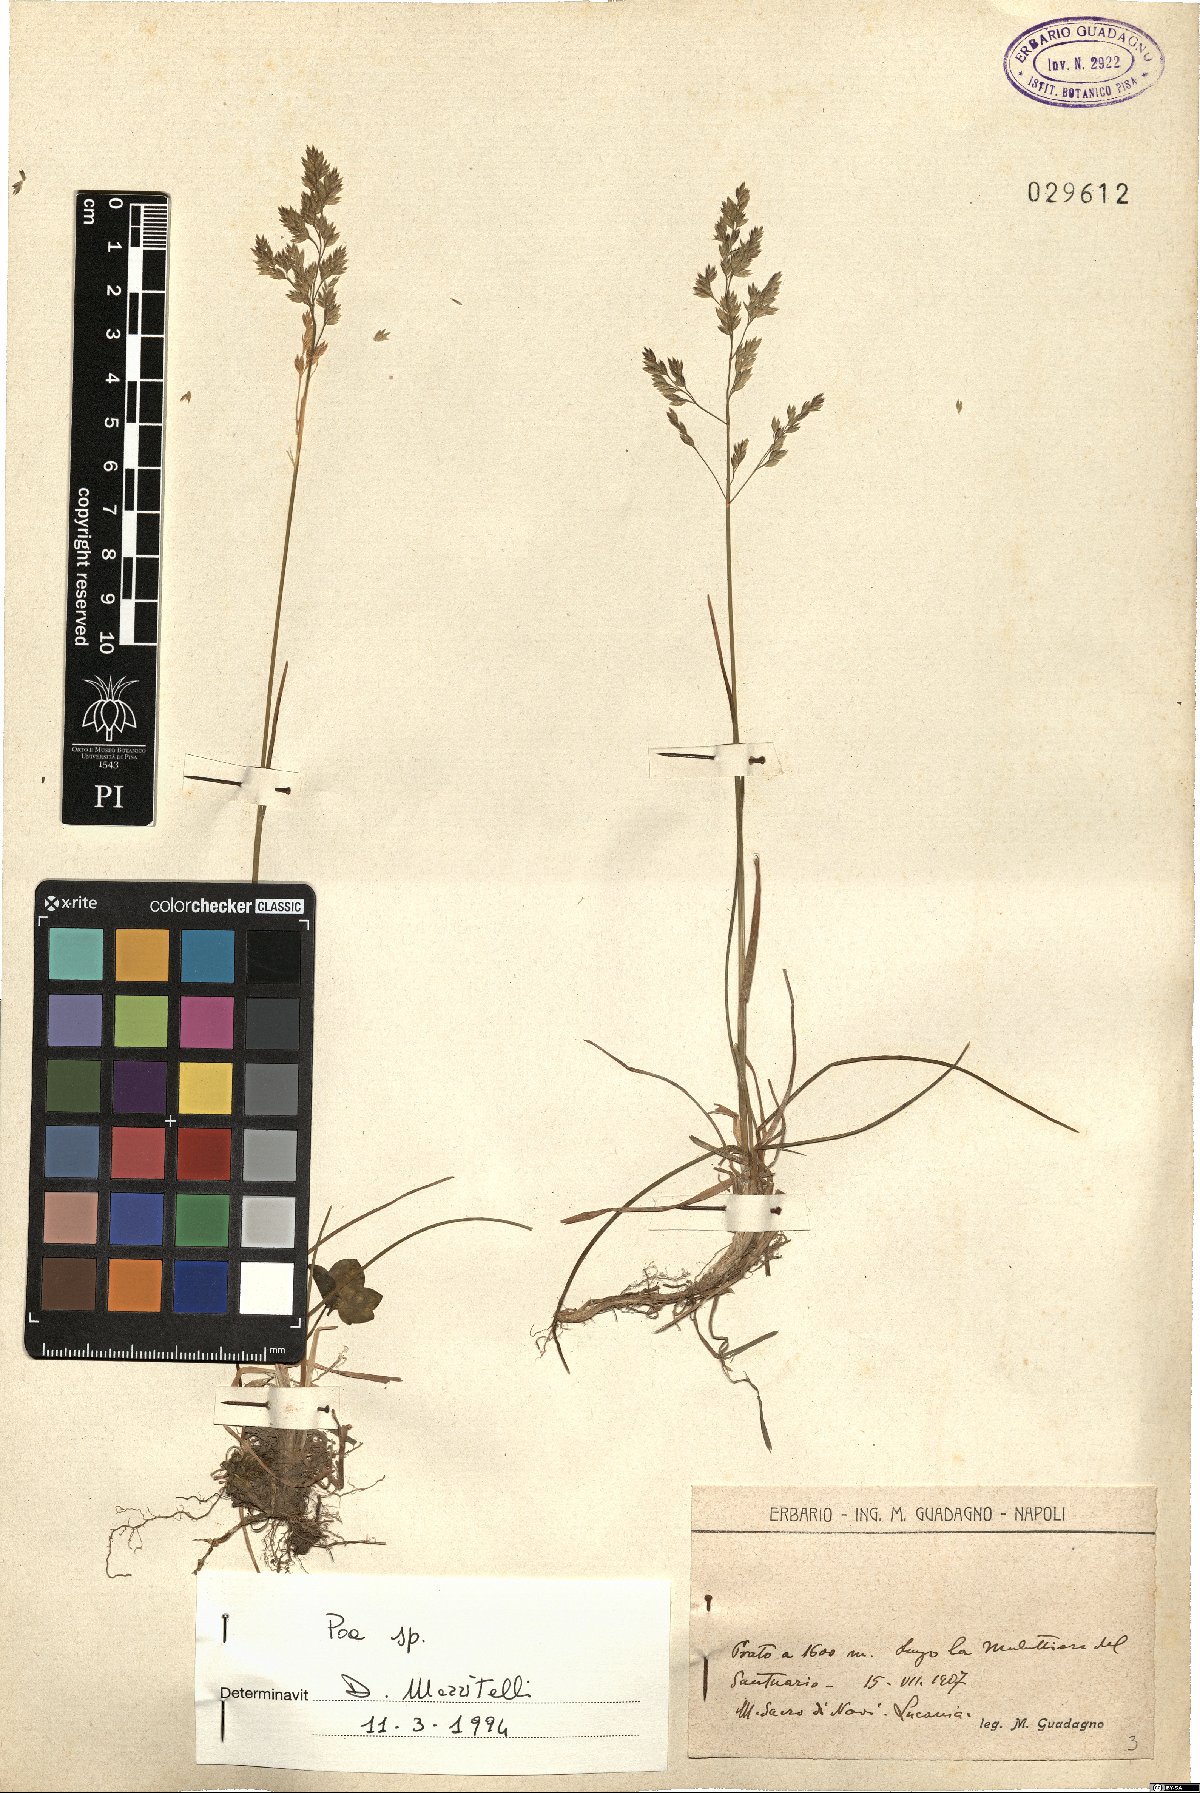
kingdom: Plantae
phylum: Tracheophyta
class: Liliopsida
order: Poales
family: Poaceae
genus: Poa
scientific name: Poa
